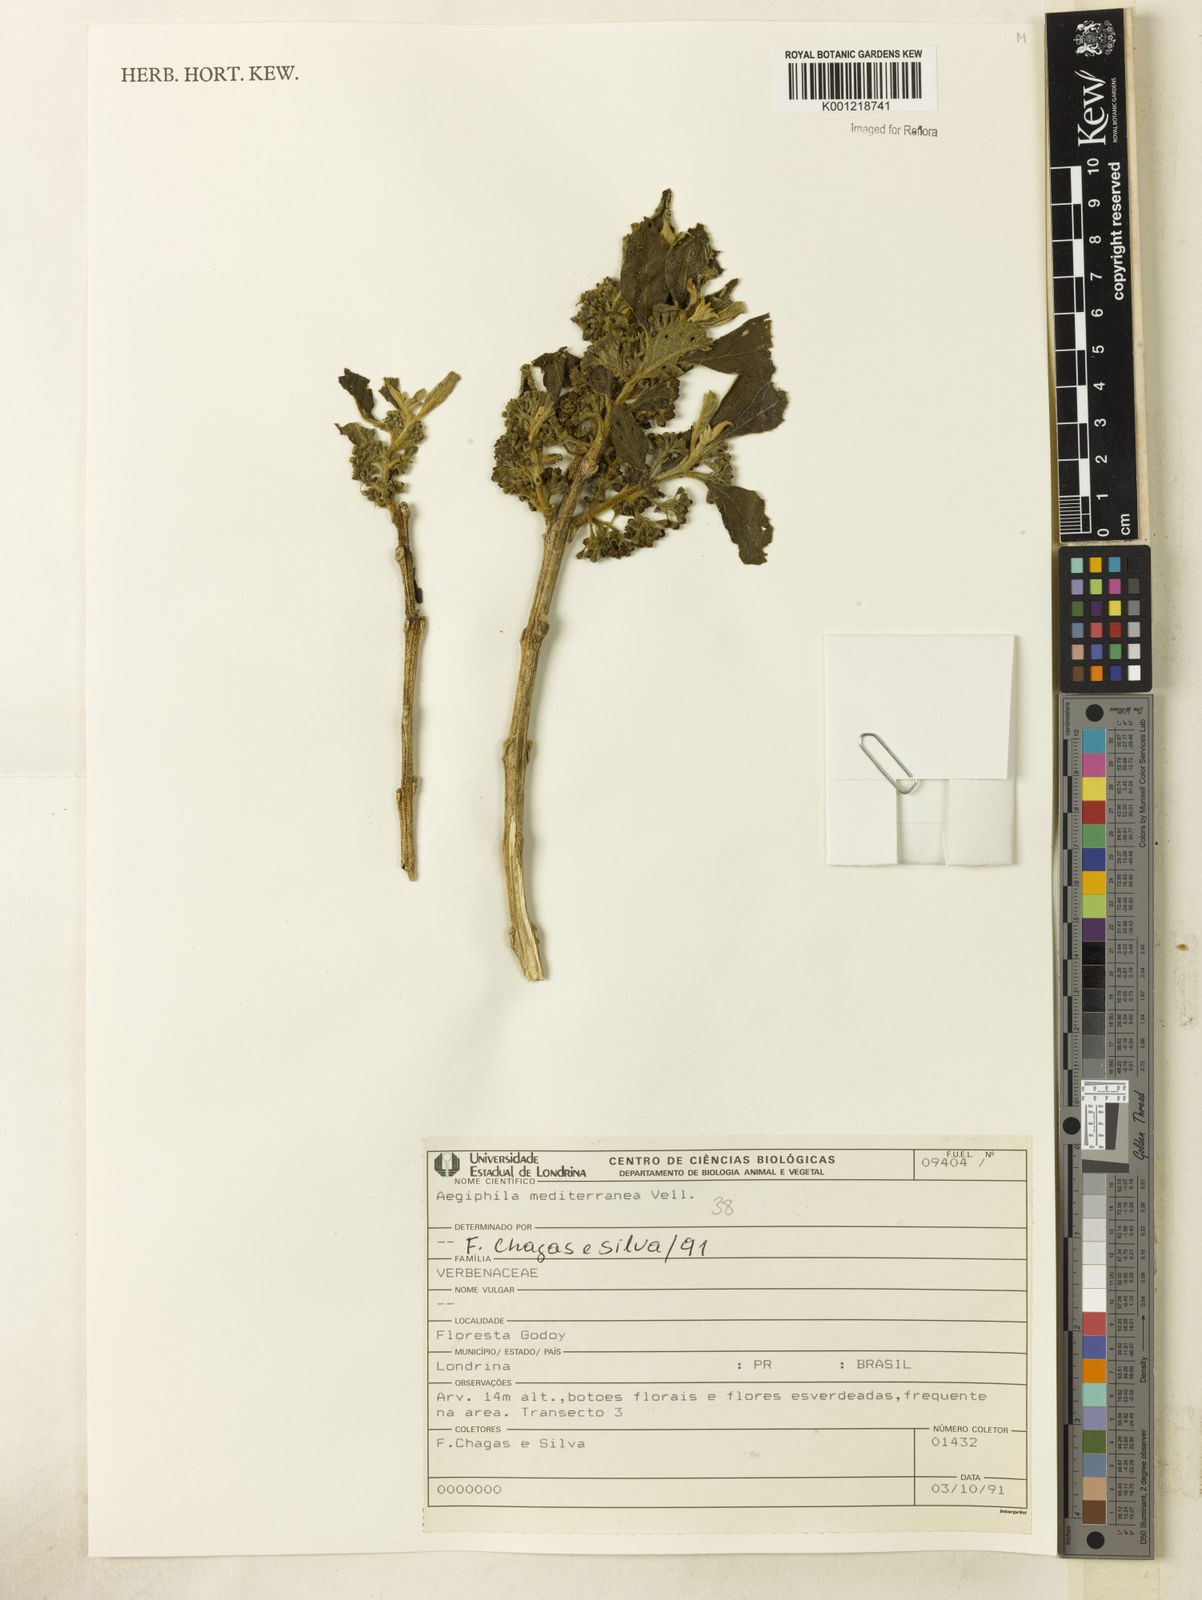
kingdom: Plantae
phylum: Tracheophyta
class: Magnoliopsida
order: Lamiales
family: Lamiaceae
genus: Aegiphila
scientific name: Aegiphila mediterranea
